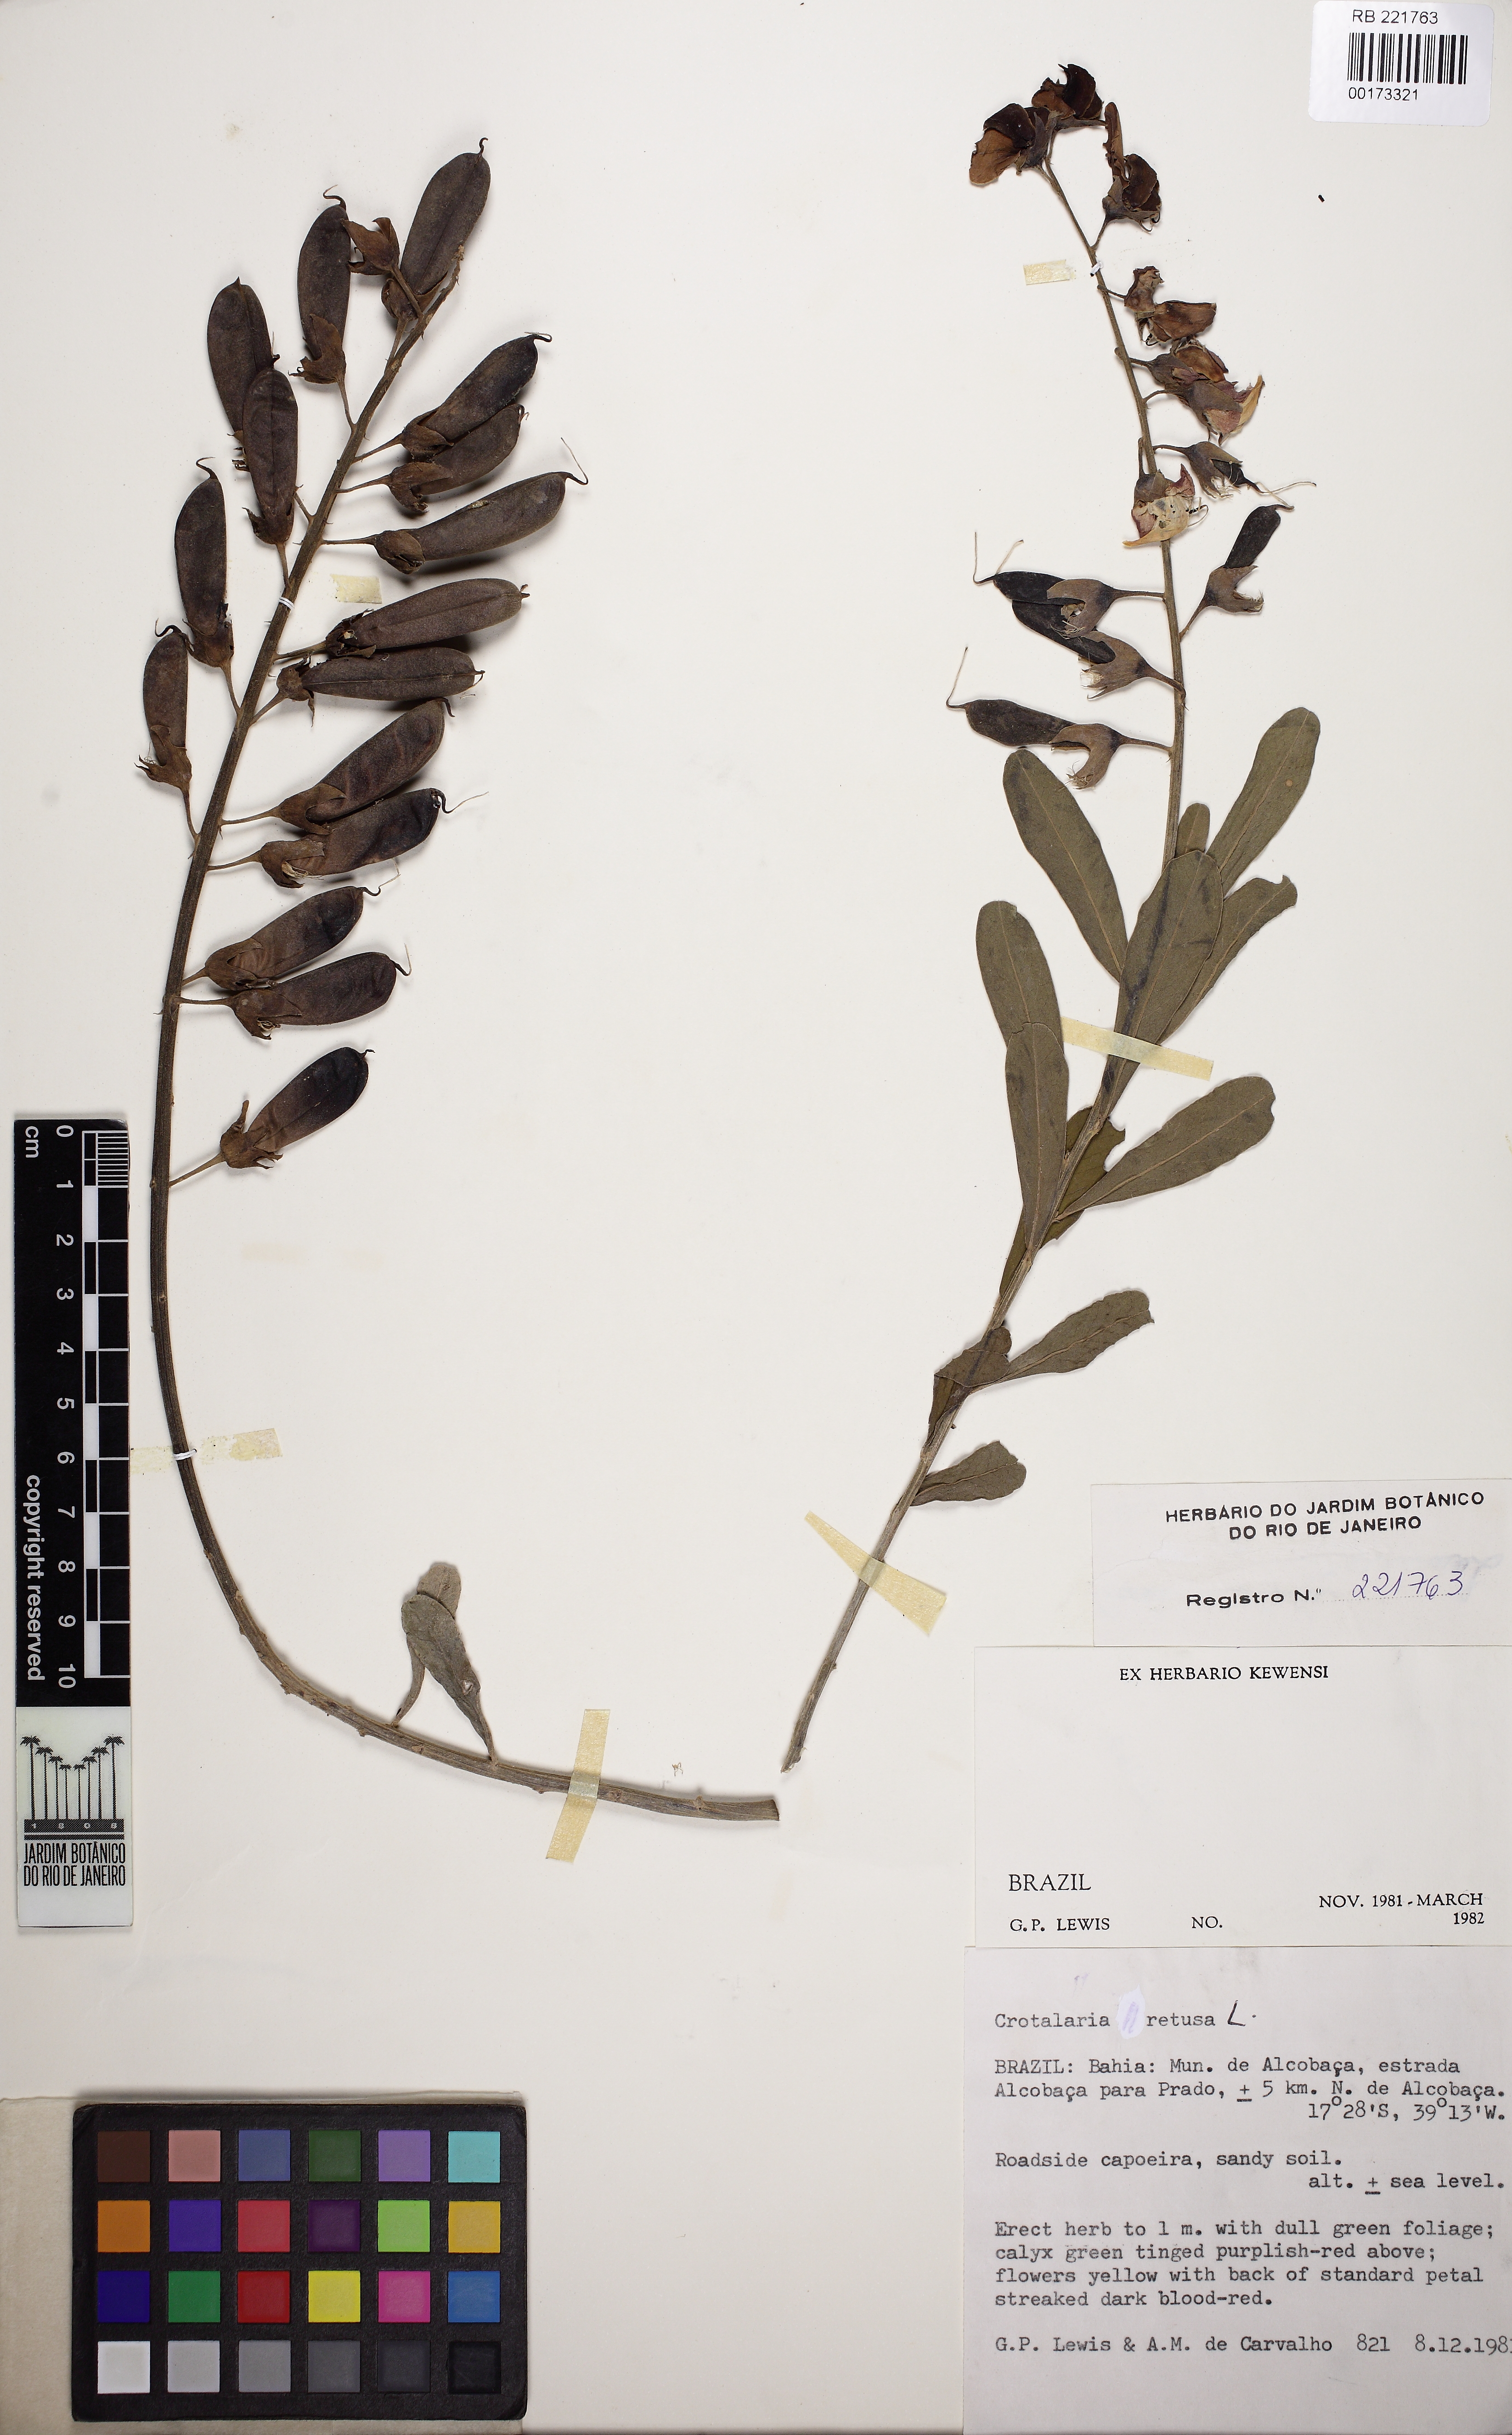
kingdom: Plantae
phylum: Tracheophyta
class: Magnoliopsida
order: Fabales
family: Fabaceae
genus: Crotalaria
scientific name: Crotalaria retusa
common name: Rattleweed
